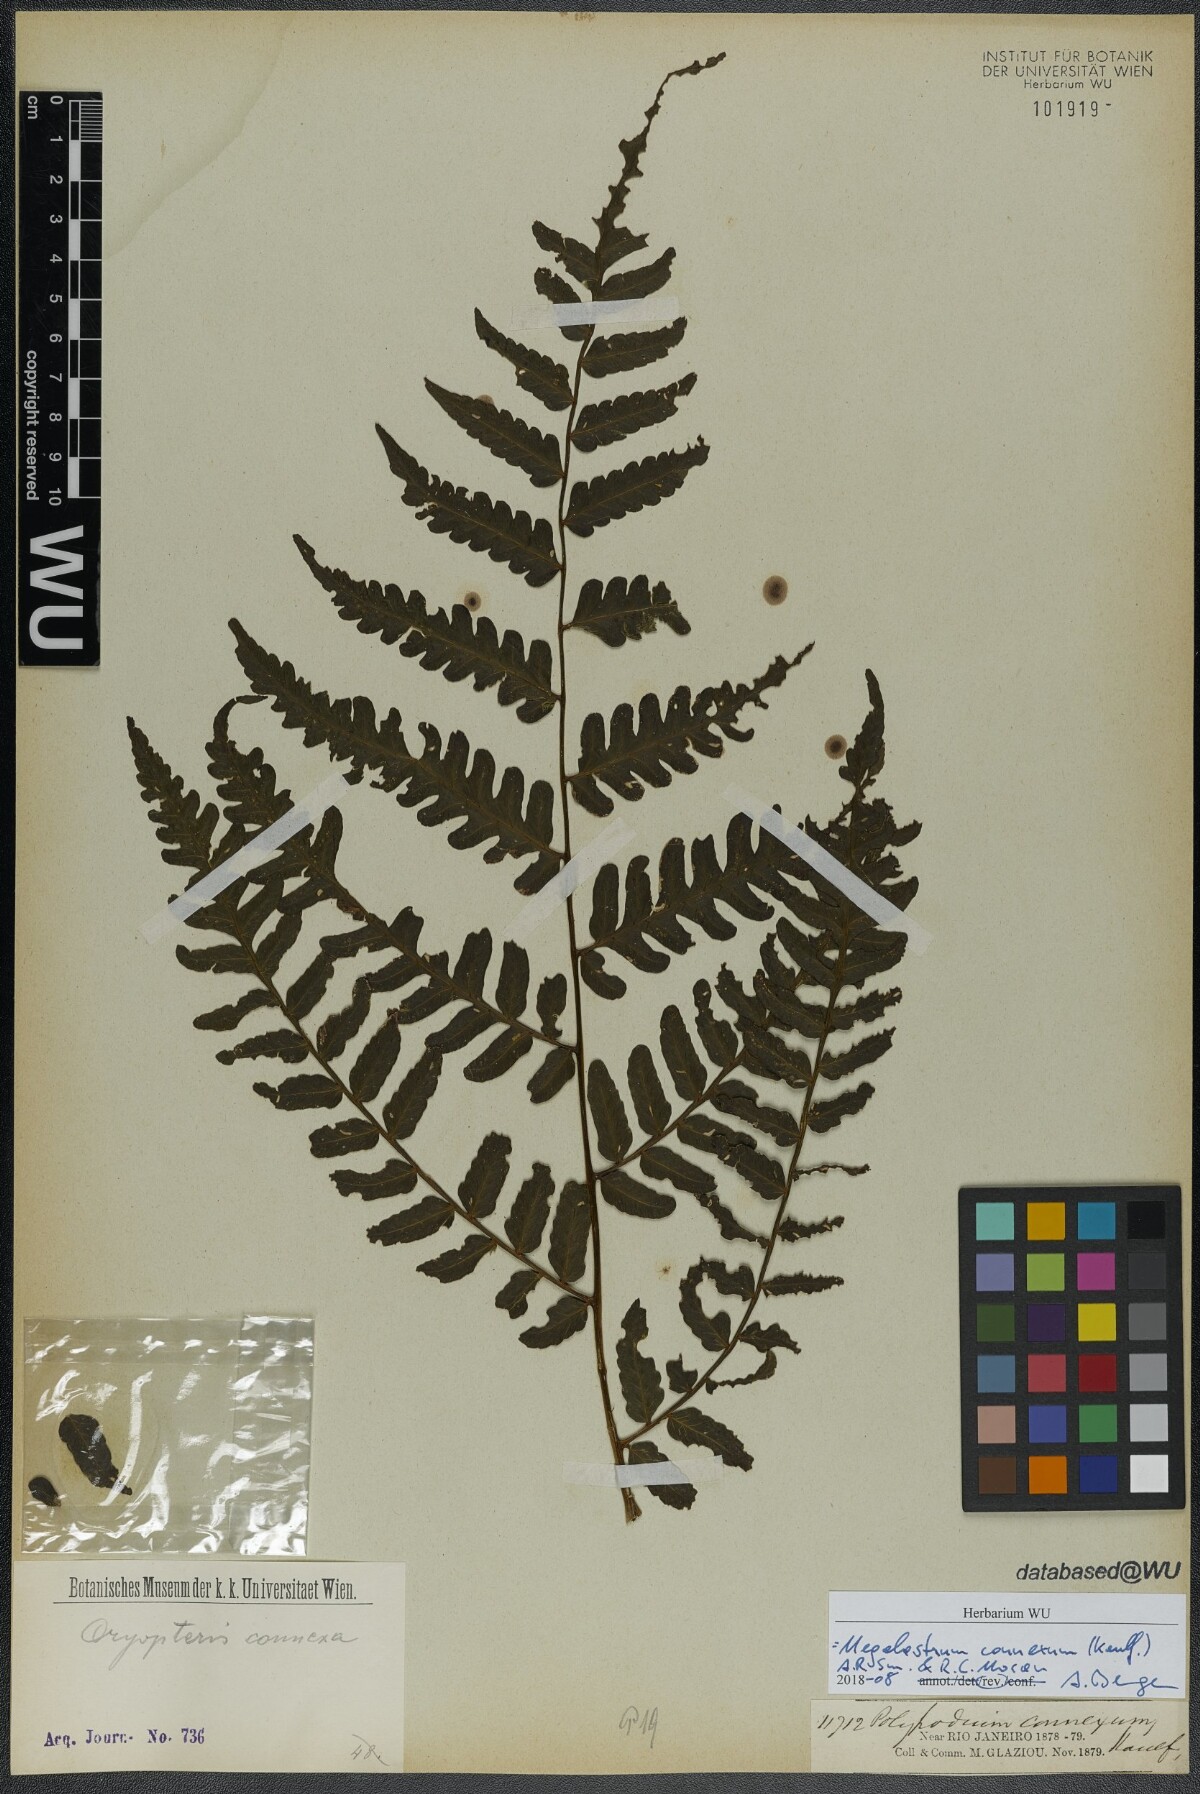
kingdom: Plantae
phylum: Tracheophyta
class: Polypodiopsida
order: Polypodiales
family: Dryopteridaceae
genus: Megalastrum
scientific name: Megalastrum connexum
